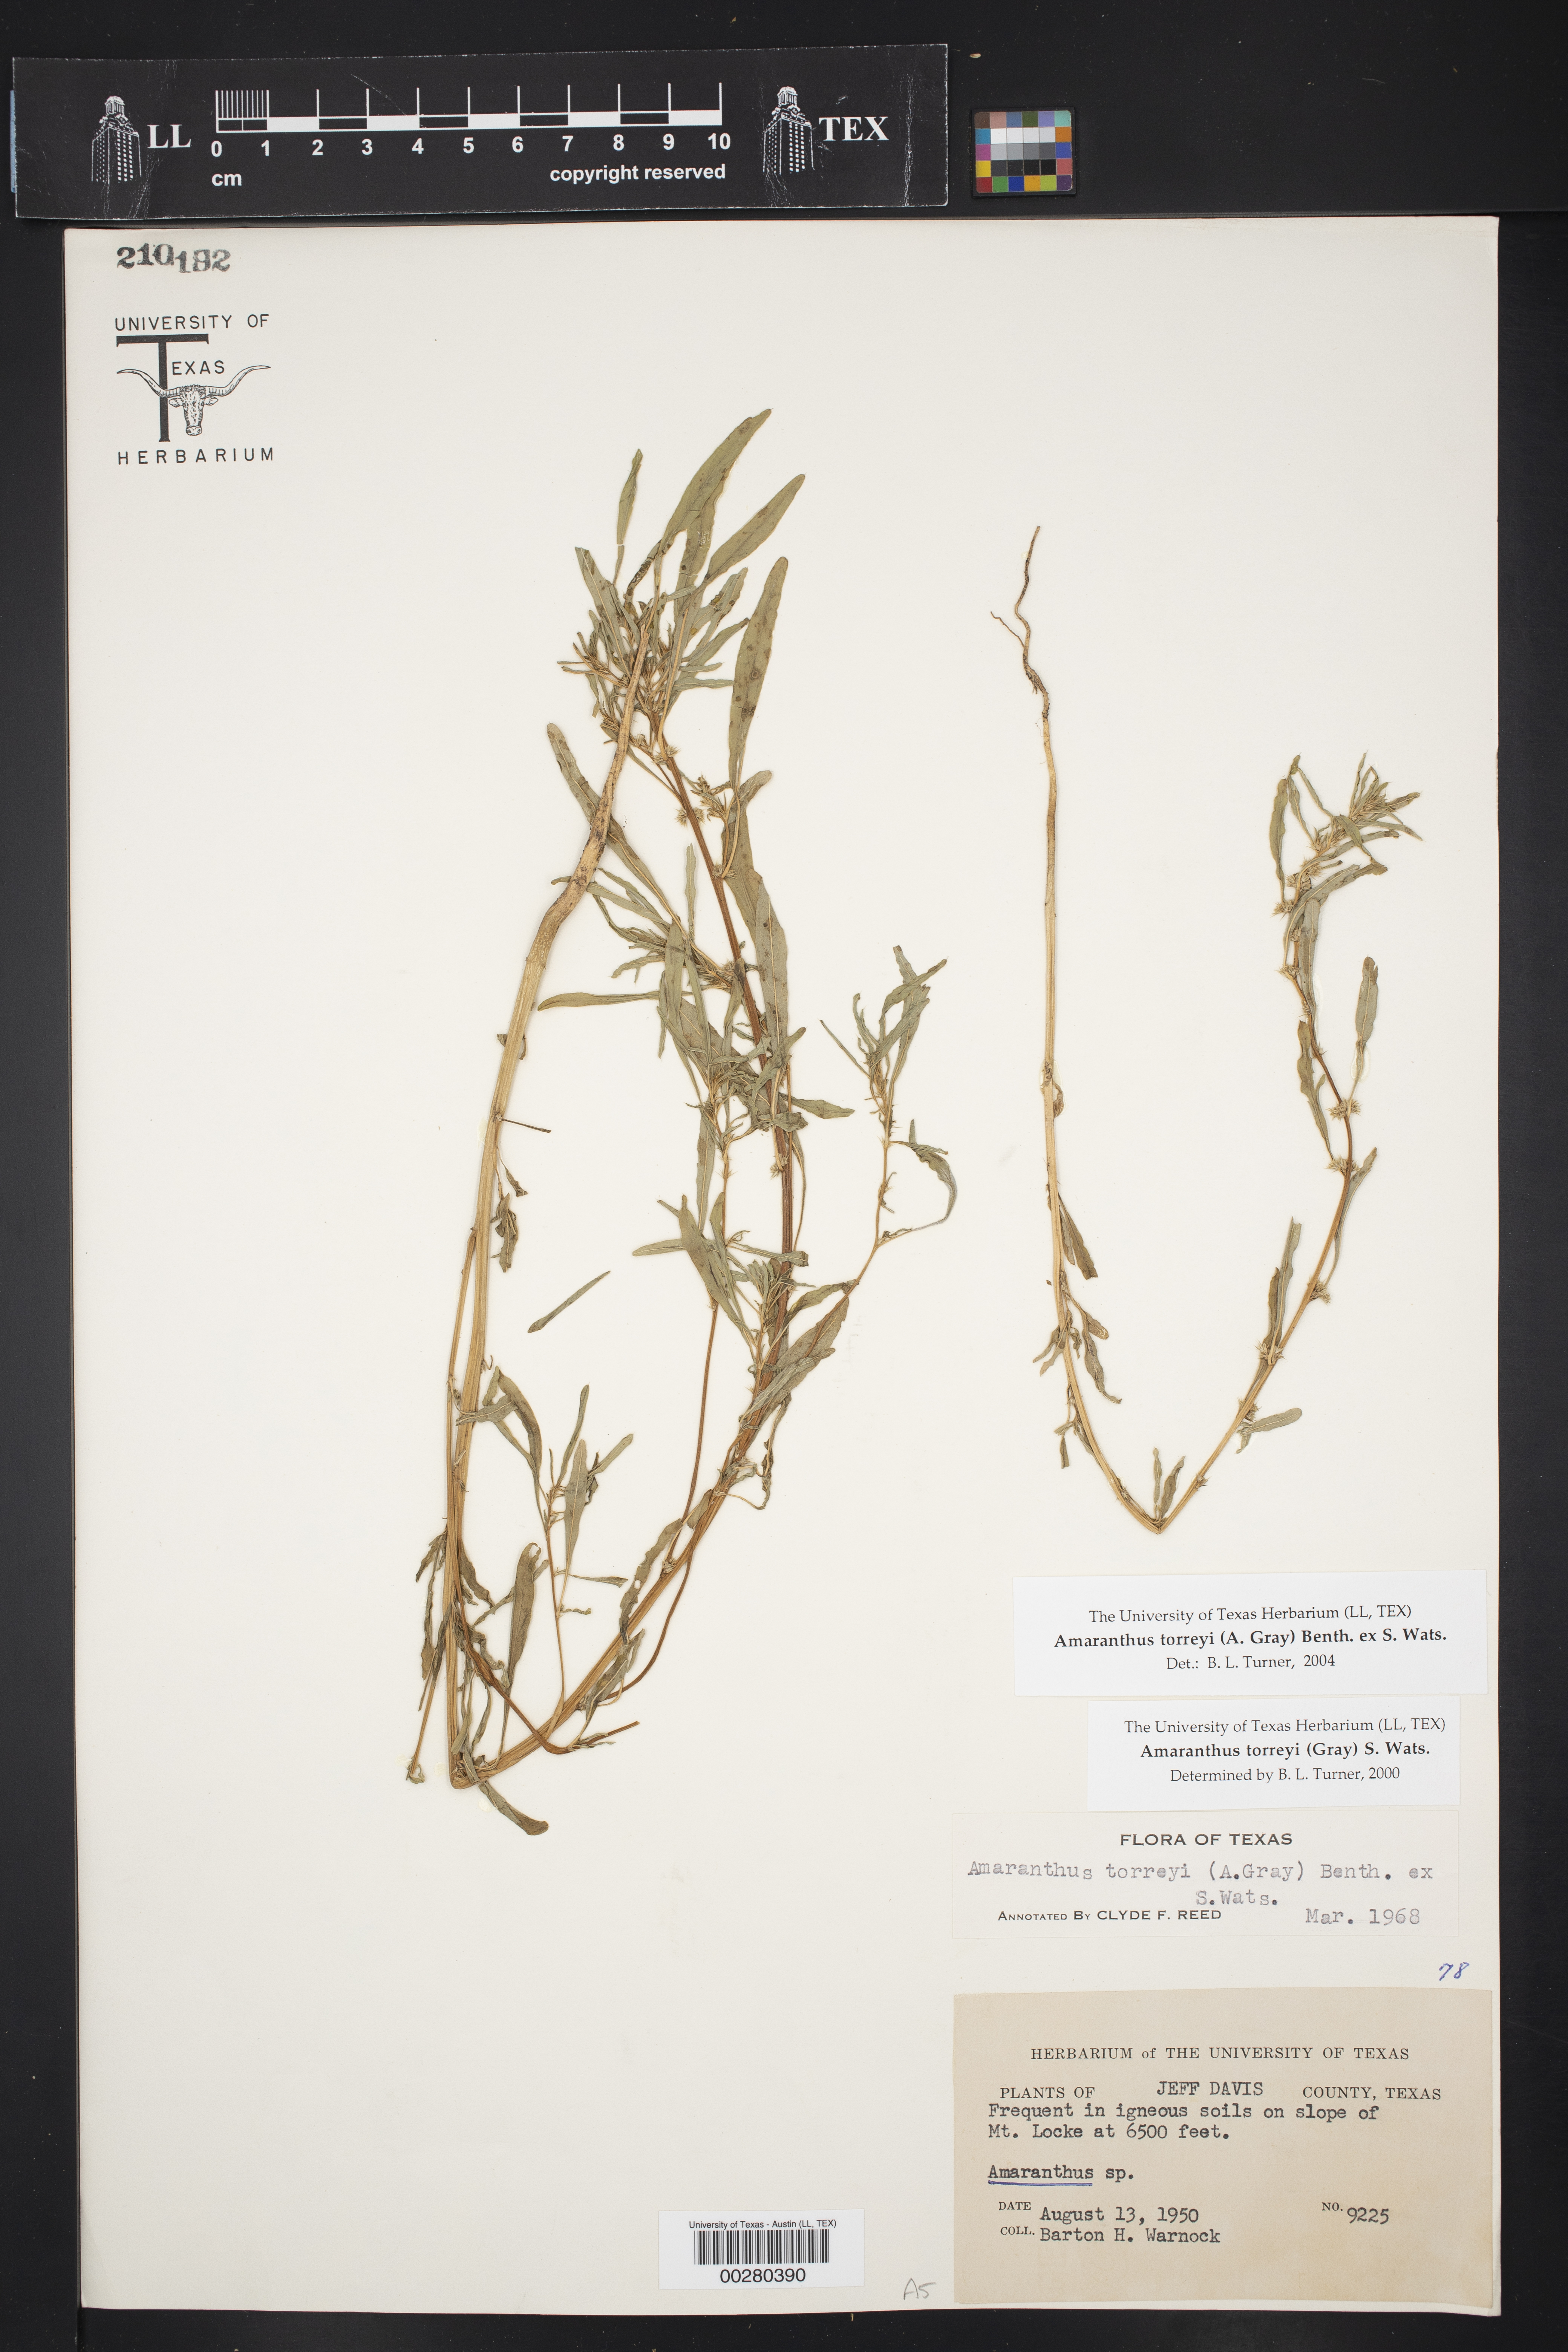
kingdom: Plantae
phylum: Tracheophyta
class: Magnoliopsida
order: Caryophyllales
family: Amaranthaceae
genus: Amaranthus
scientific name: Amaranthus torreyi
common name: Bigelow's amaranth
